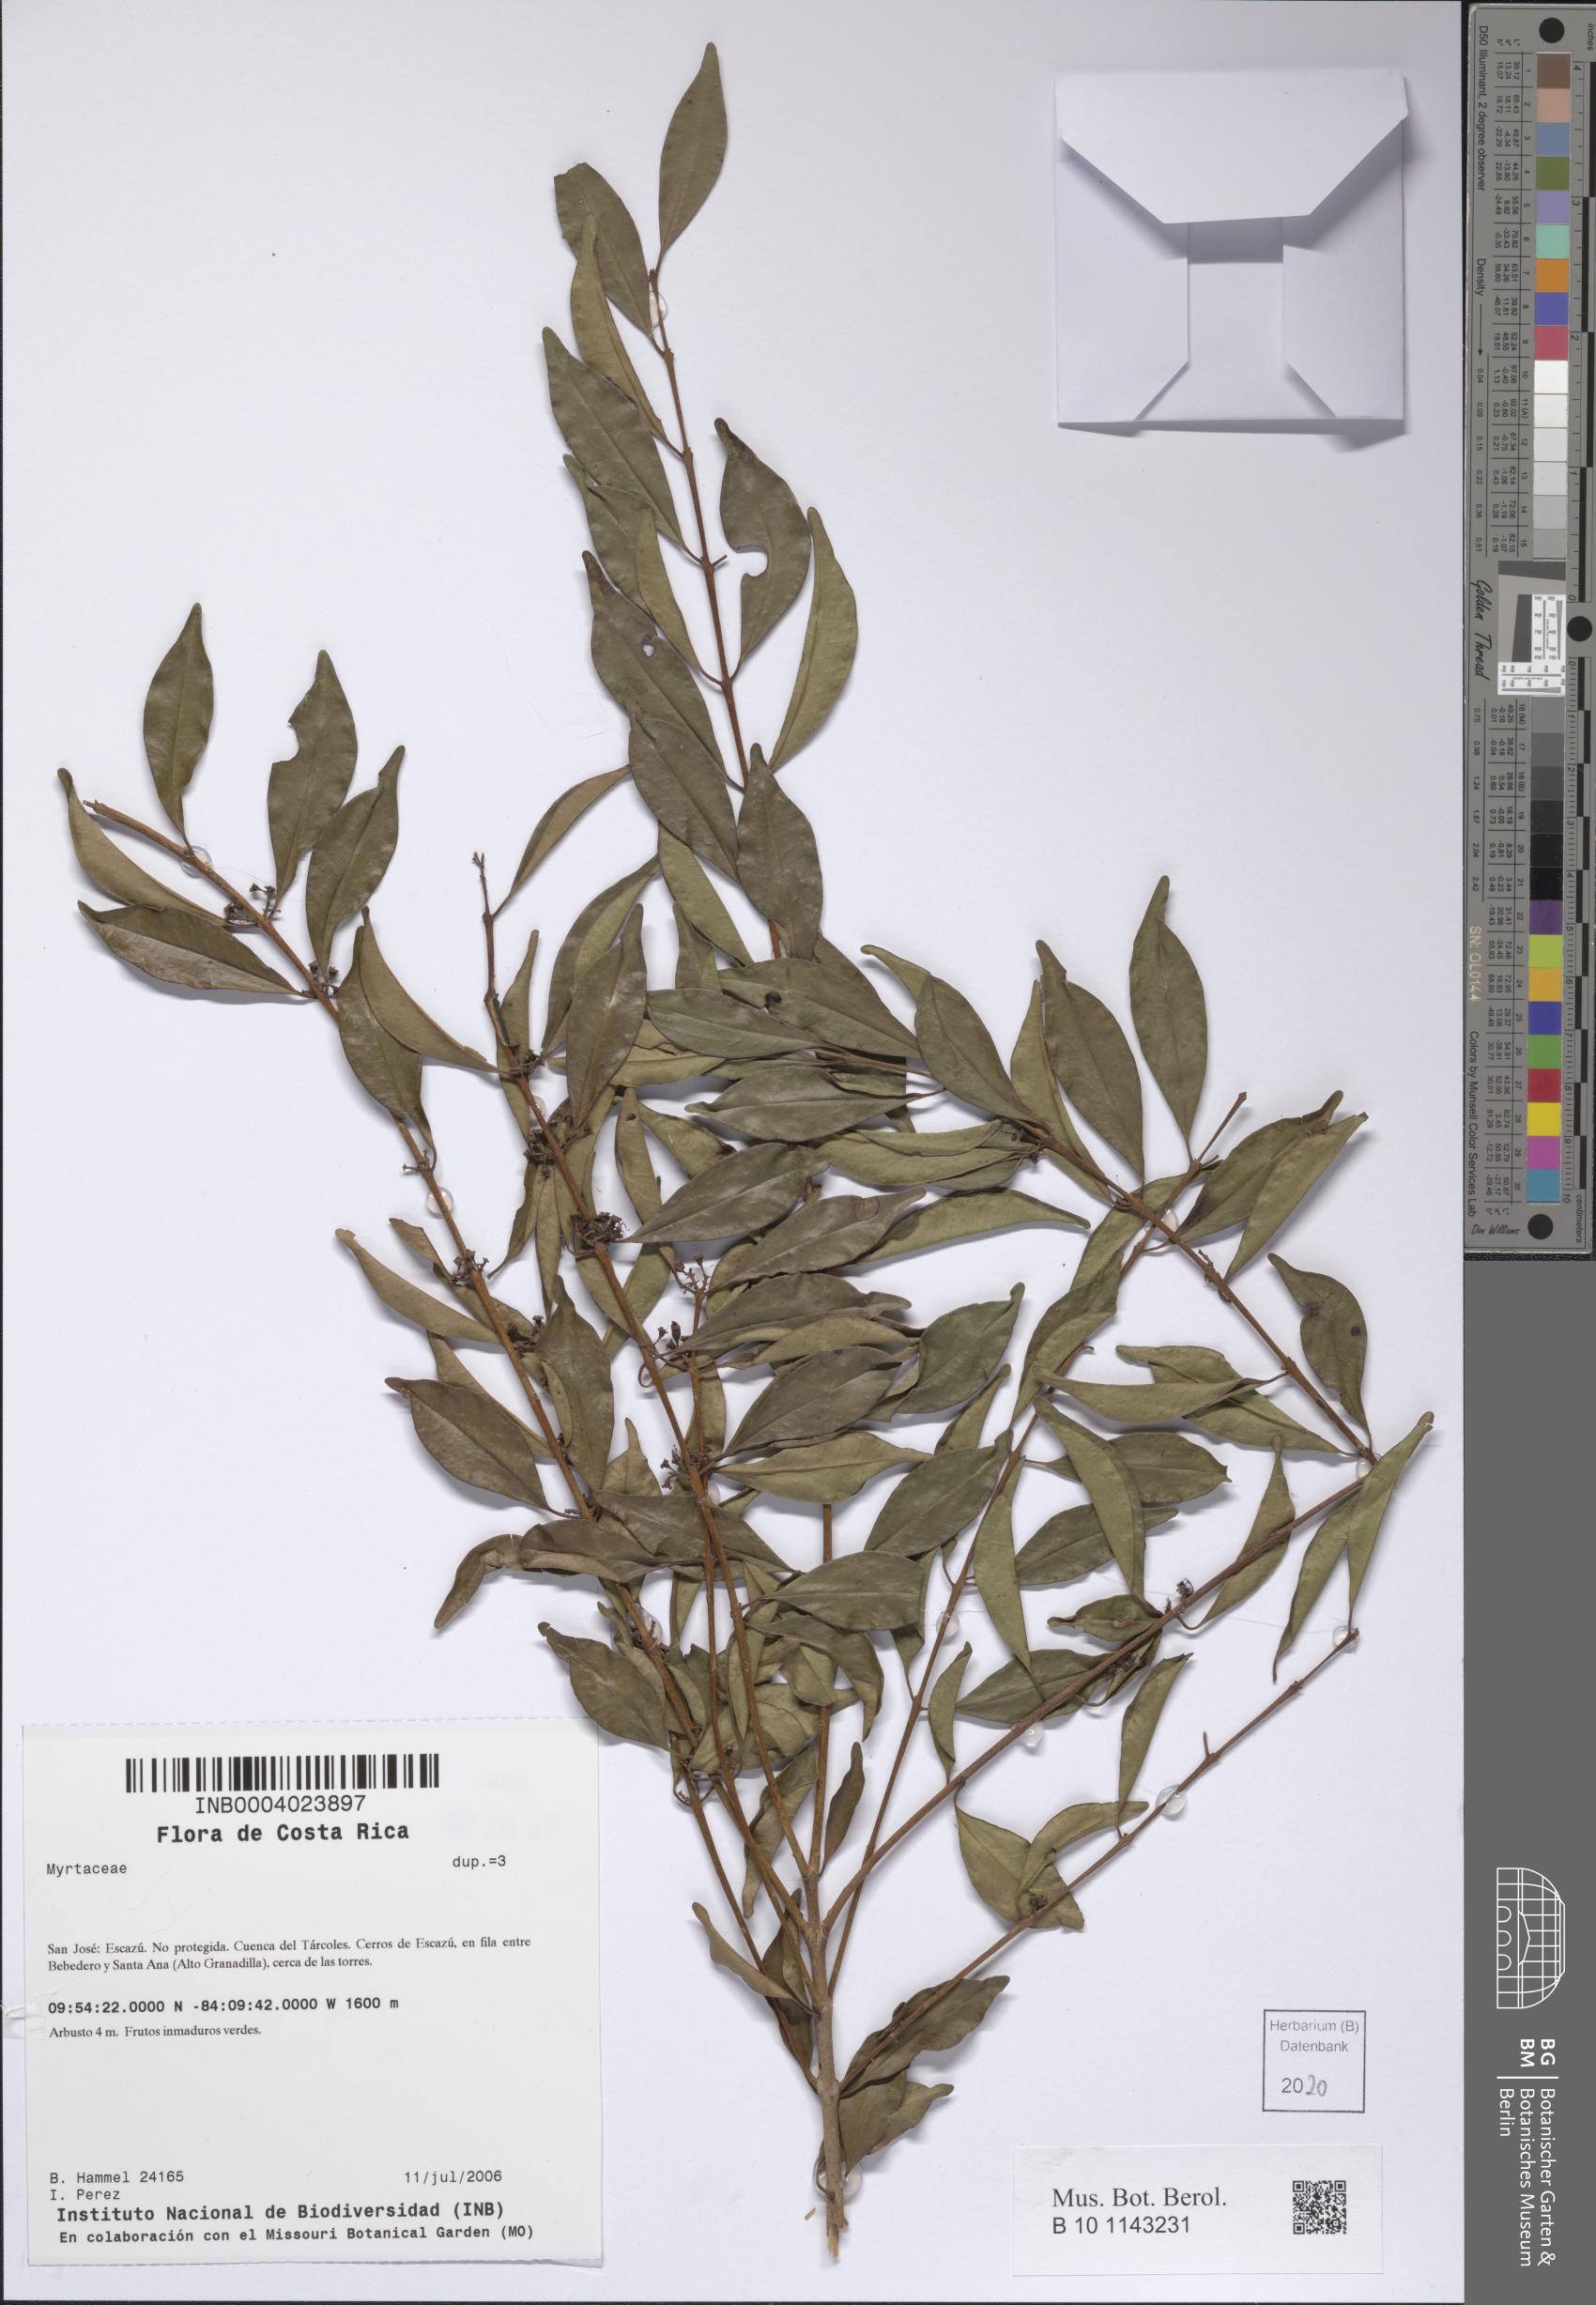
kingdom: Plantae
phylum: Tracheophyta
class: Magnoliopsida
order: Myrtales
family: Myrtaceae
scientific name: Myrtaceae
